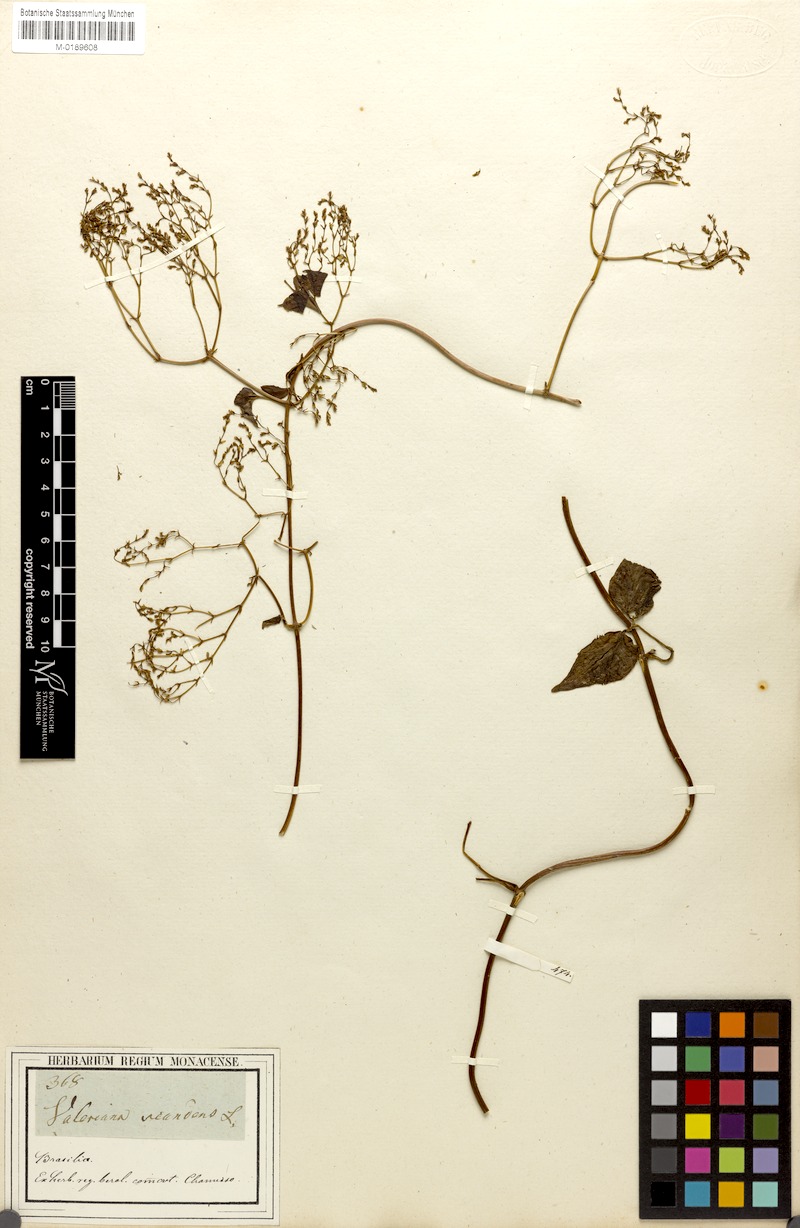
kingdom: Plantae
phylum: Tracheophyta
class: Magnoliopsida
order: Dipsacales
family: Caprifoliaceae
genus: Valeriana
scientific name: Valeriana scandens
